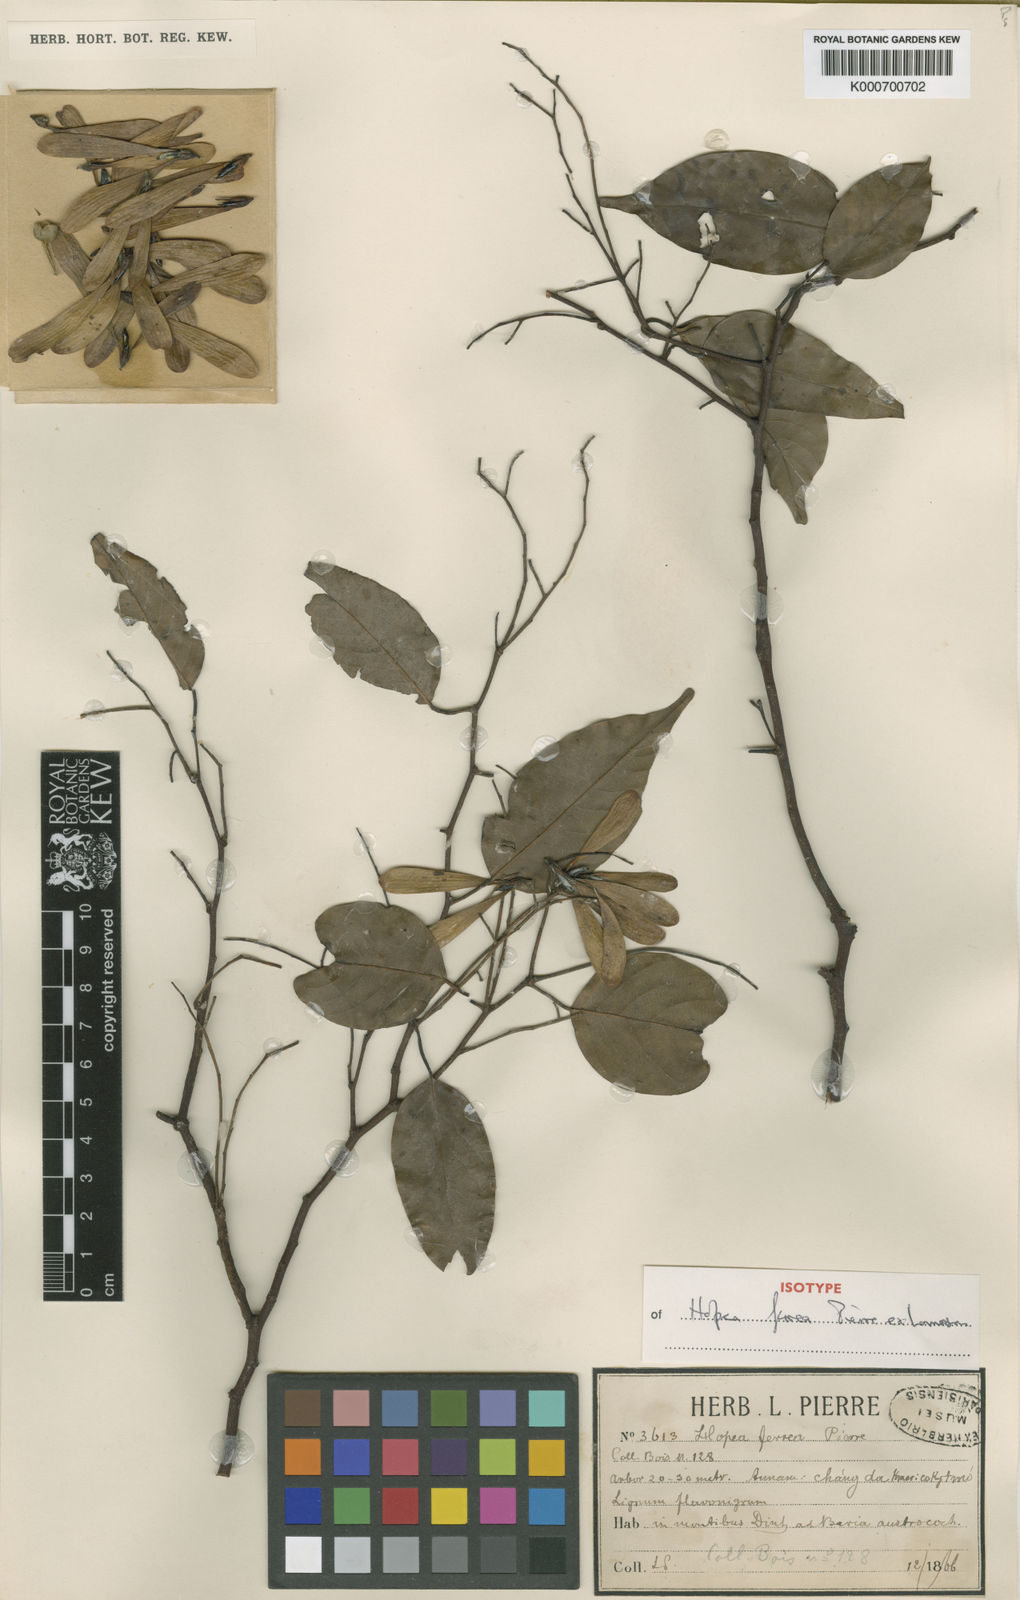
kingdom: Plantae
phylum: Tracheophyta
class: Magnoliopsida
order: Malvales
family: Dipterocarpaceae
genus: Hopea
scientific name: Hopea ferrea
